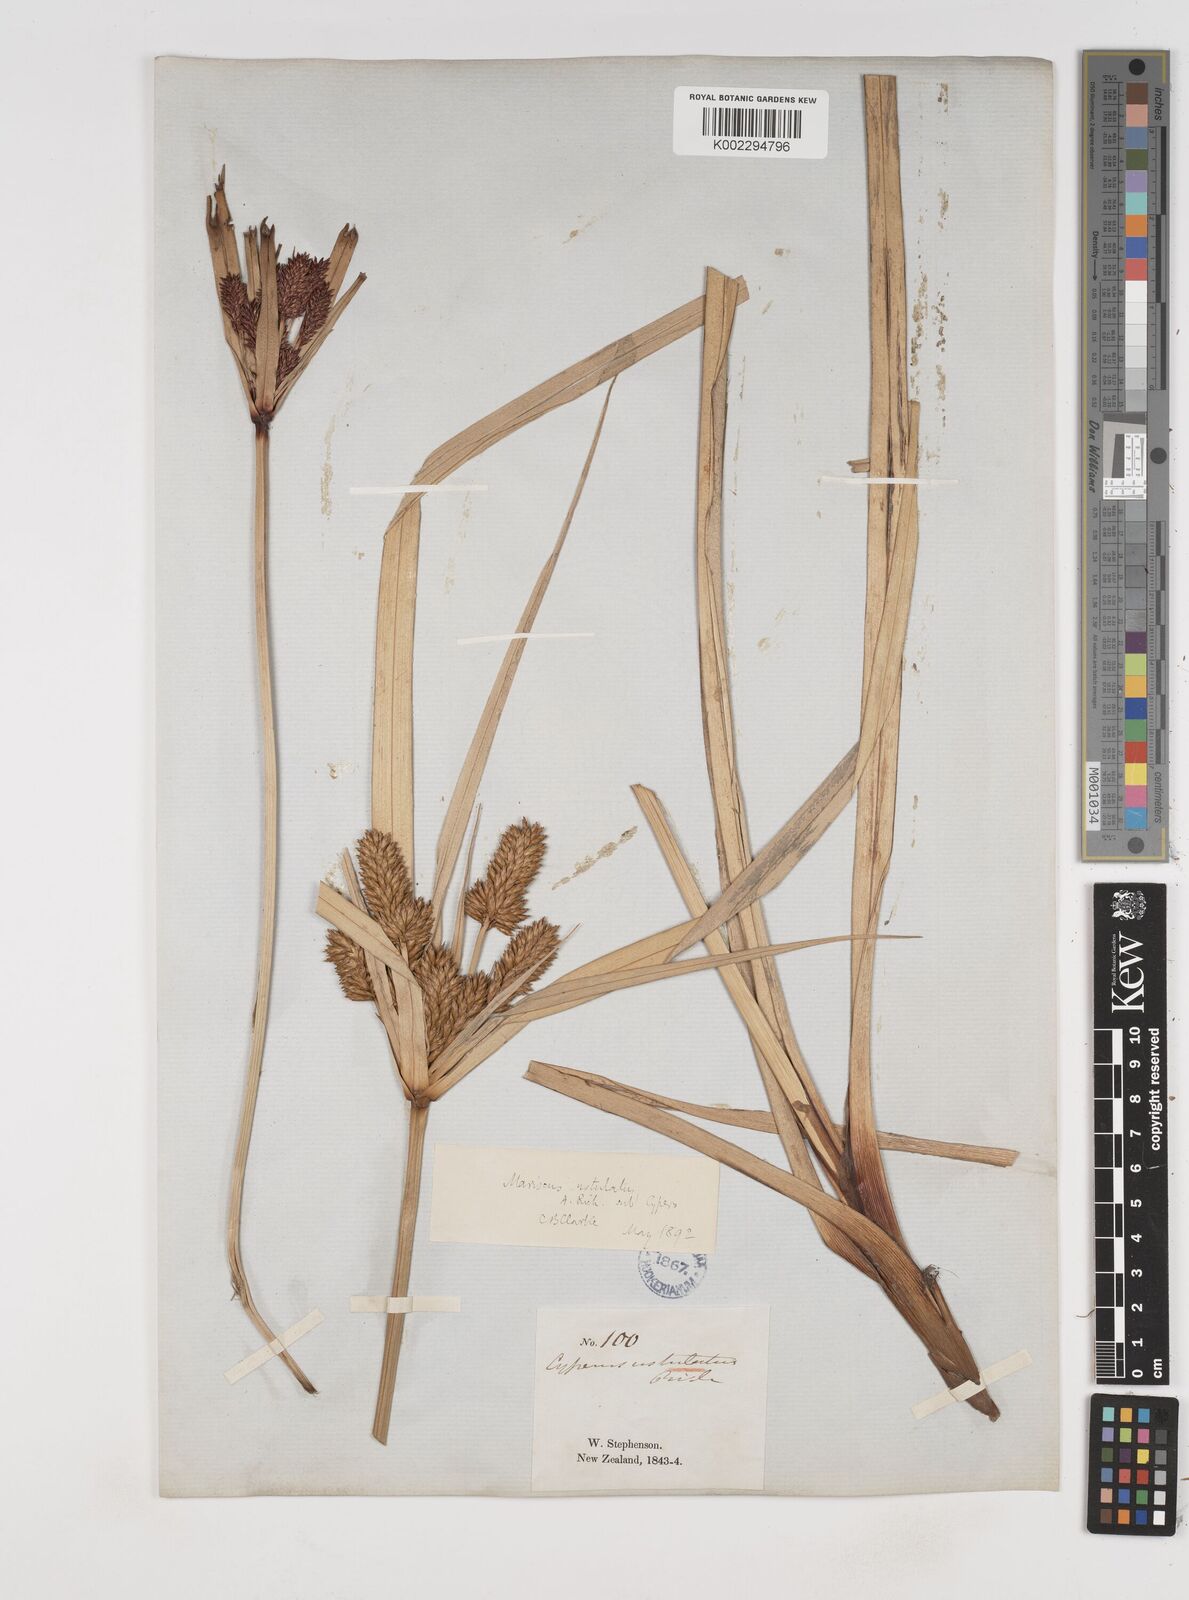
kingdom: Plantae
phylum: Tracheophyta
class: Liliopsida
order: Poales
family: Cyperaceae
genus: Cyperus
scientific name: Cyperus ustulatus
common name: Giant umbrella-sedge
